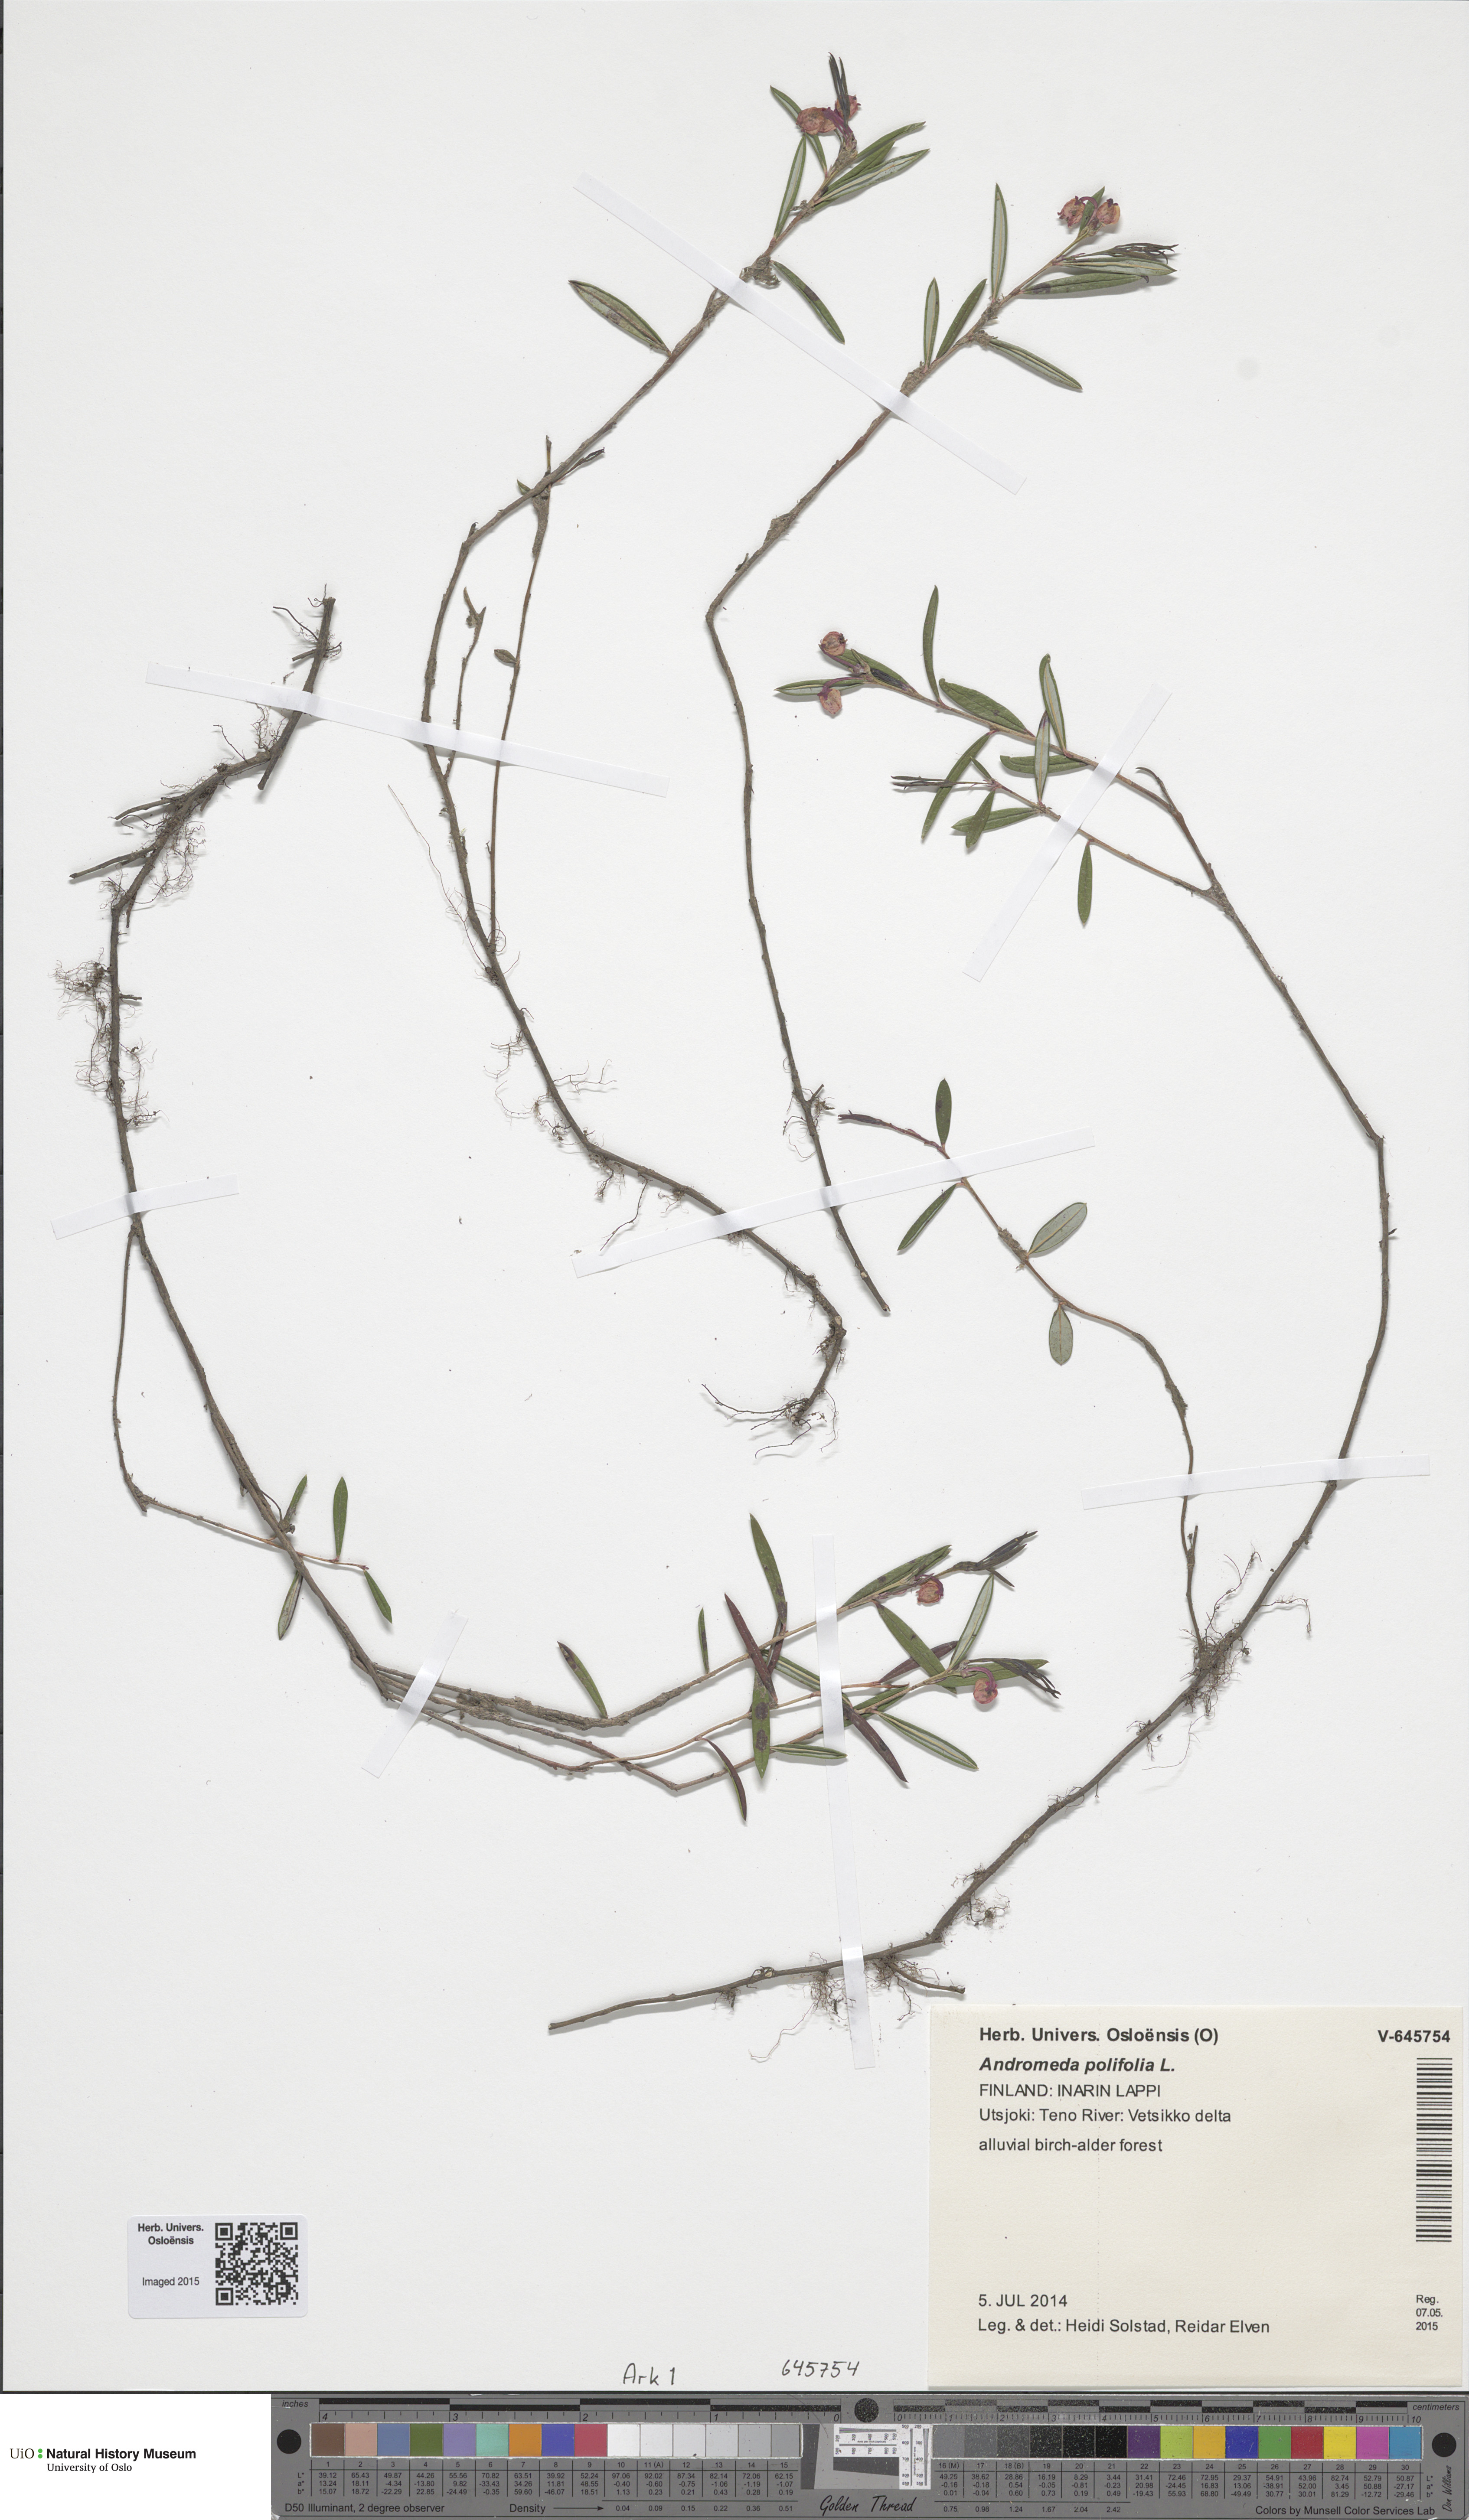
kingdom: Plantae
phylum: Tracheophyta
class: Magnoliopsida
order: Ericales
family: Ericaceae
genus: Andromeda
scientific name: Andromeda polifolia
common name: Bog-rosemary
